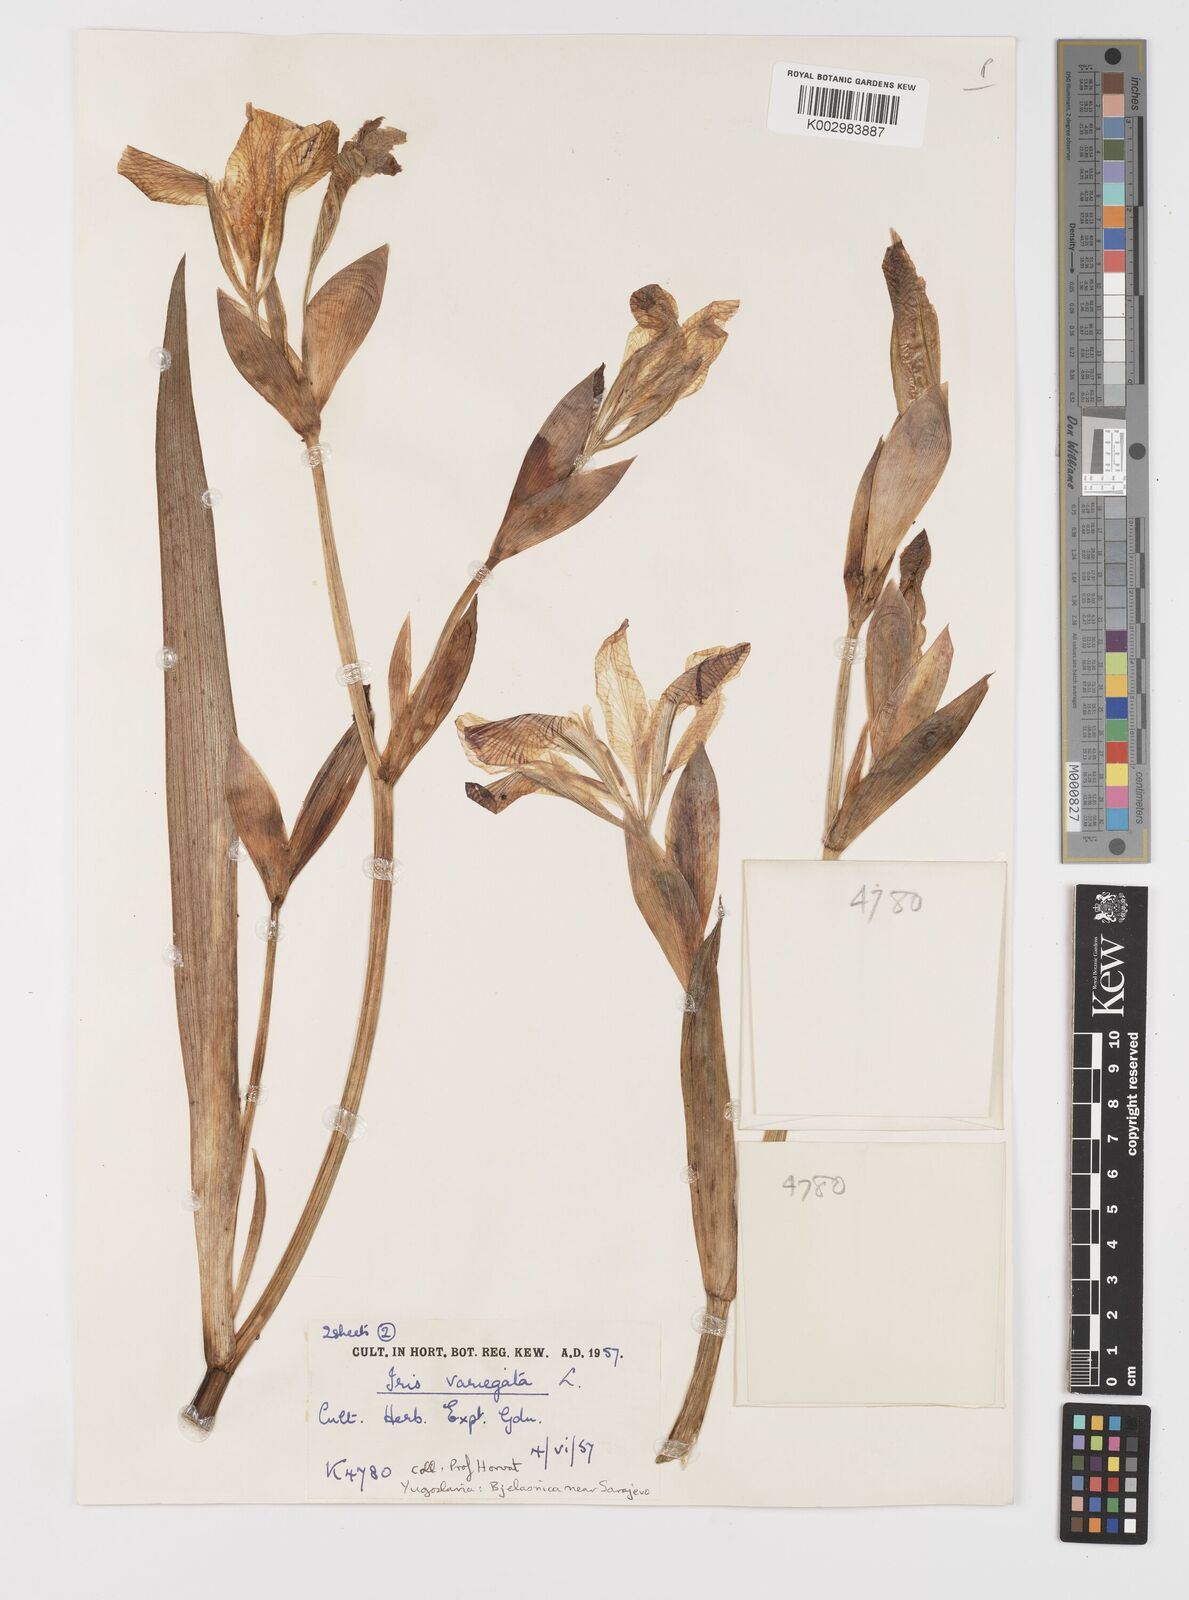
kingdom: Plantae
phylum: Tracheophyta
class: Liliopsida
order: Asparagales
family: Iridaceae
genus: Iris
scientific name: Iris variegata
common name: Hungarian iris
